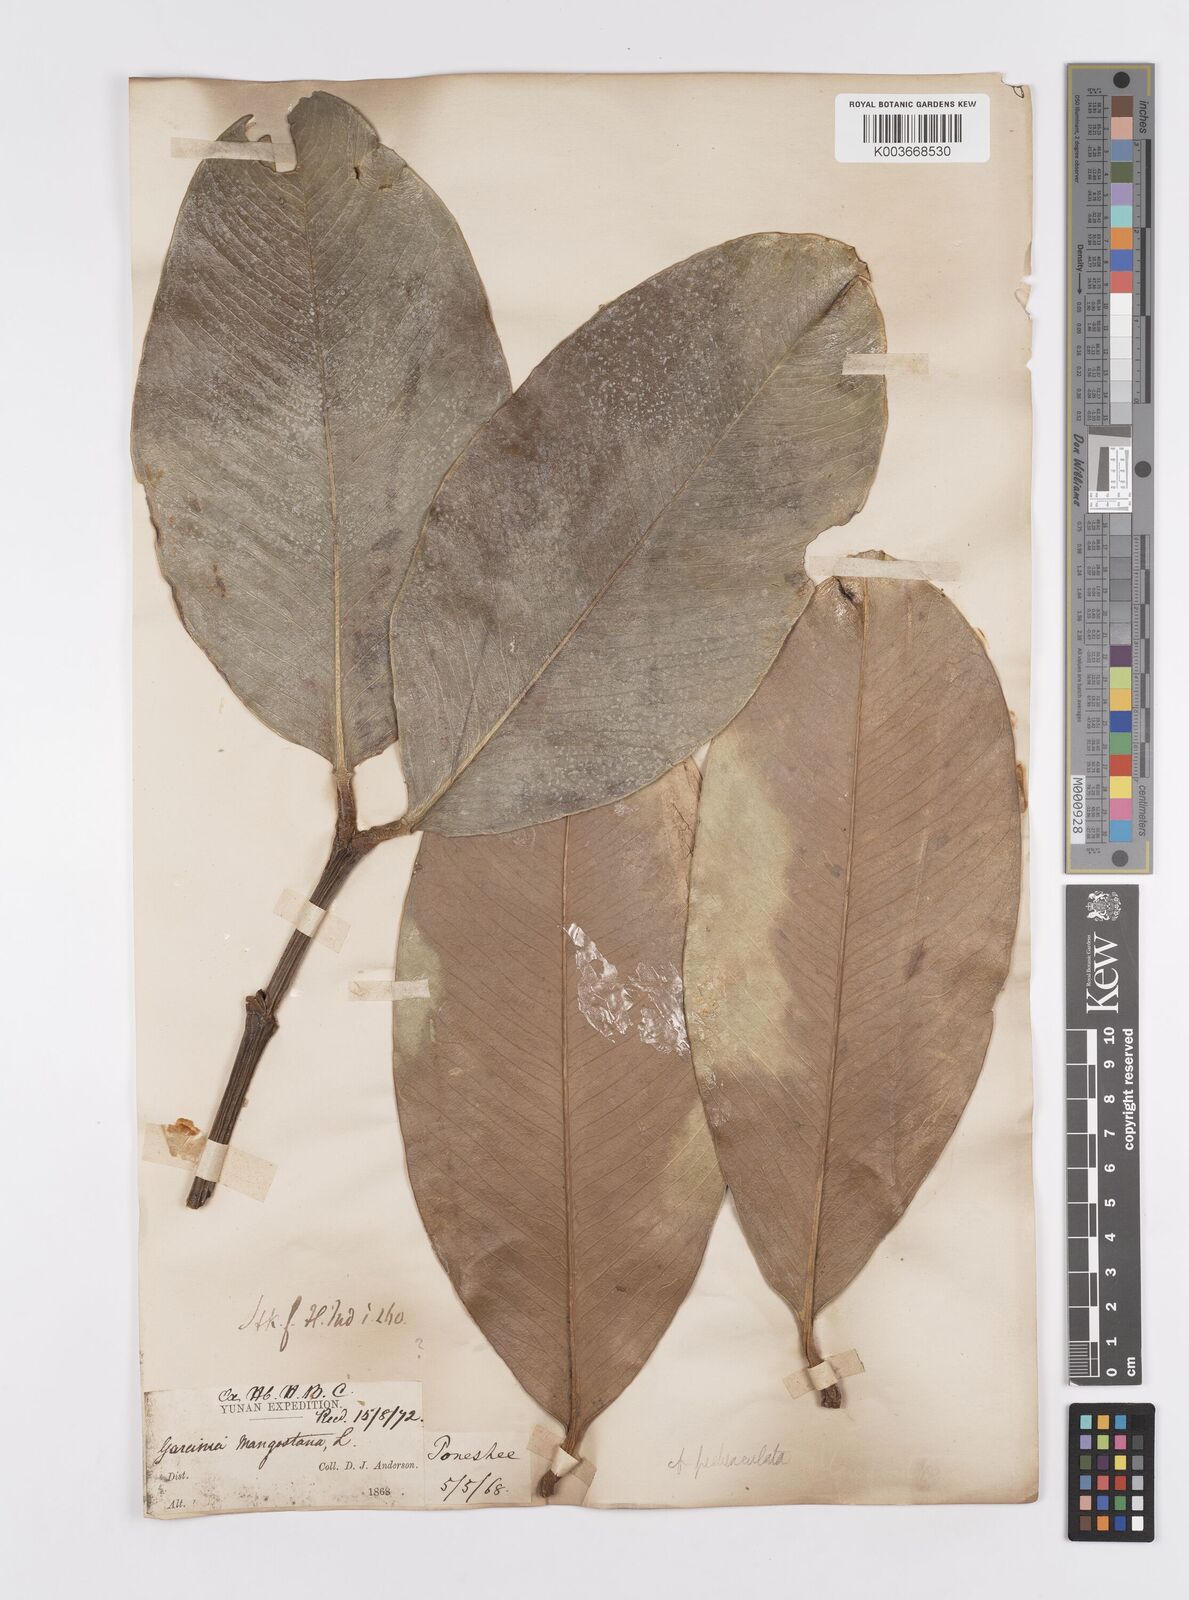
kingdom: Plantae
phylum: Tracheophyta
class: Magnoliopsida
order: Malpighiales
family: Clusiaceae
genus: Garcinia
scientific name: Garcinia pedunculata
